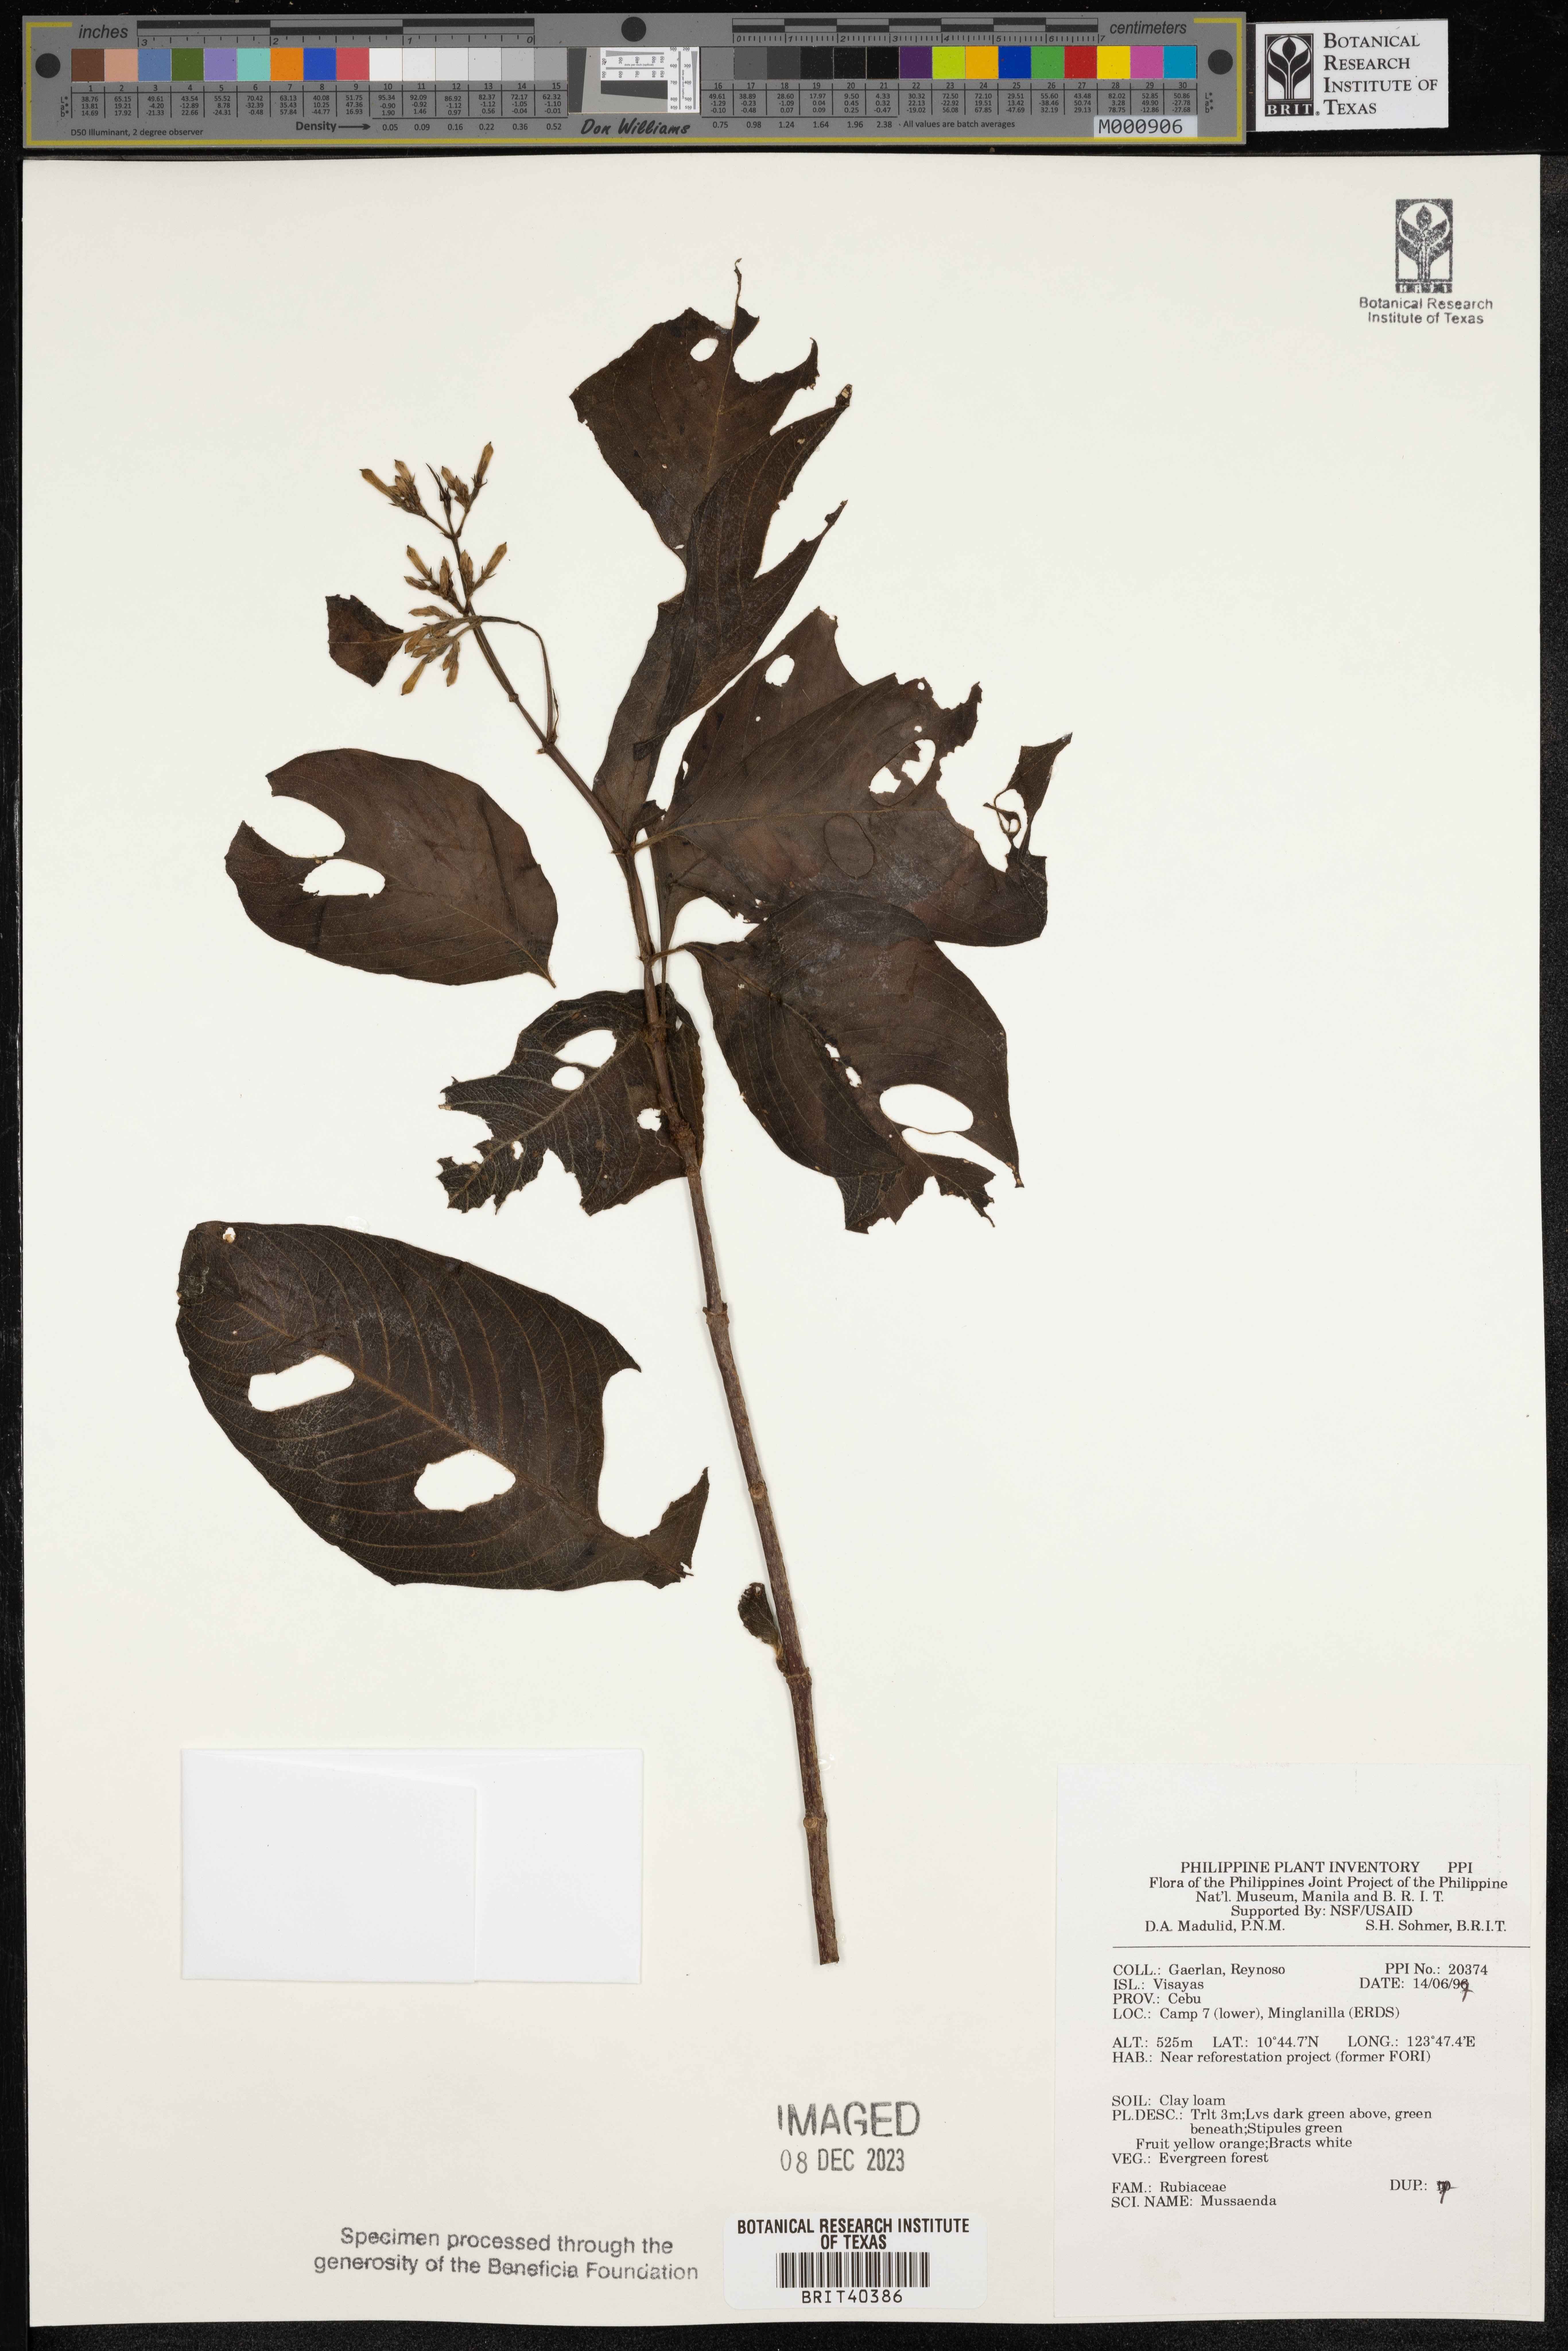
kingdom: Plantae
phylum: Tracheophyta
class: Magnoliopsida
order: Gentianales
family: Rubiaceae
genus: Mussaenda
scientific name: Mussaenda
